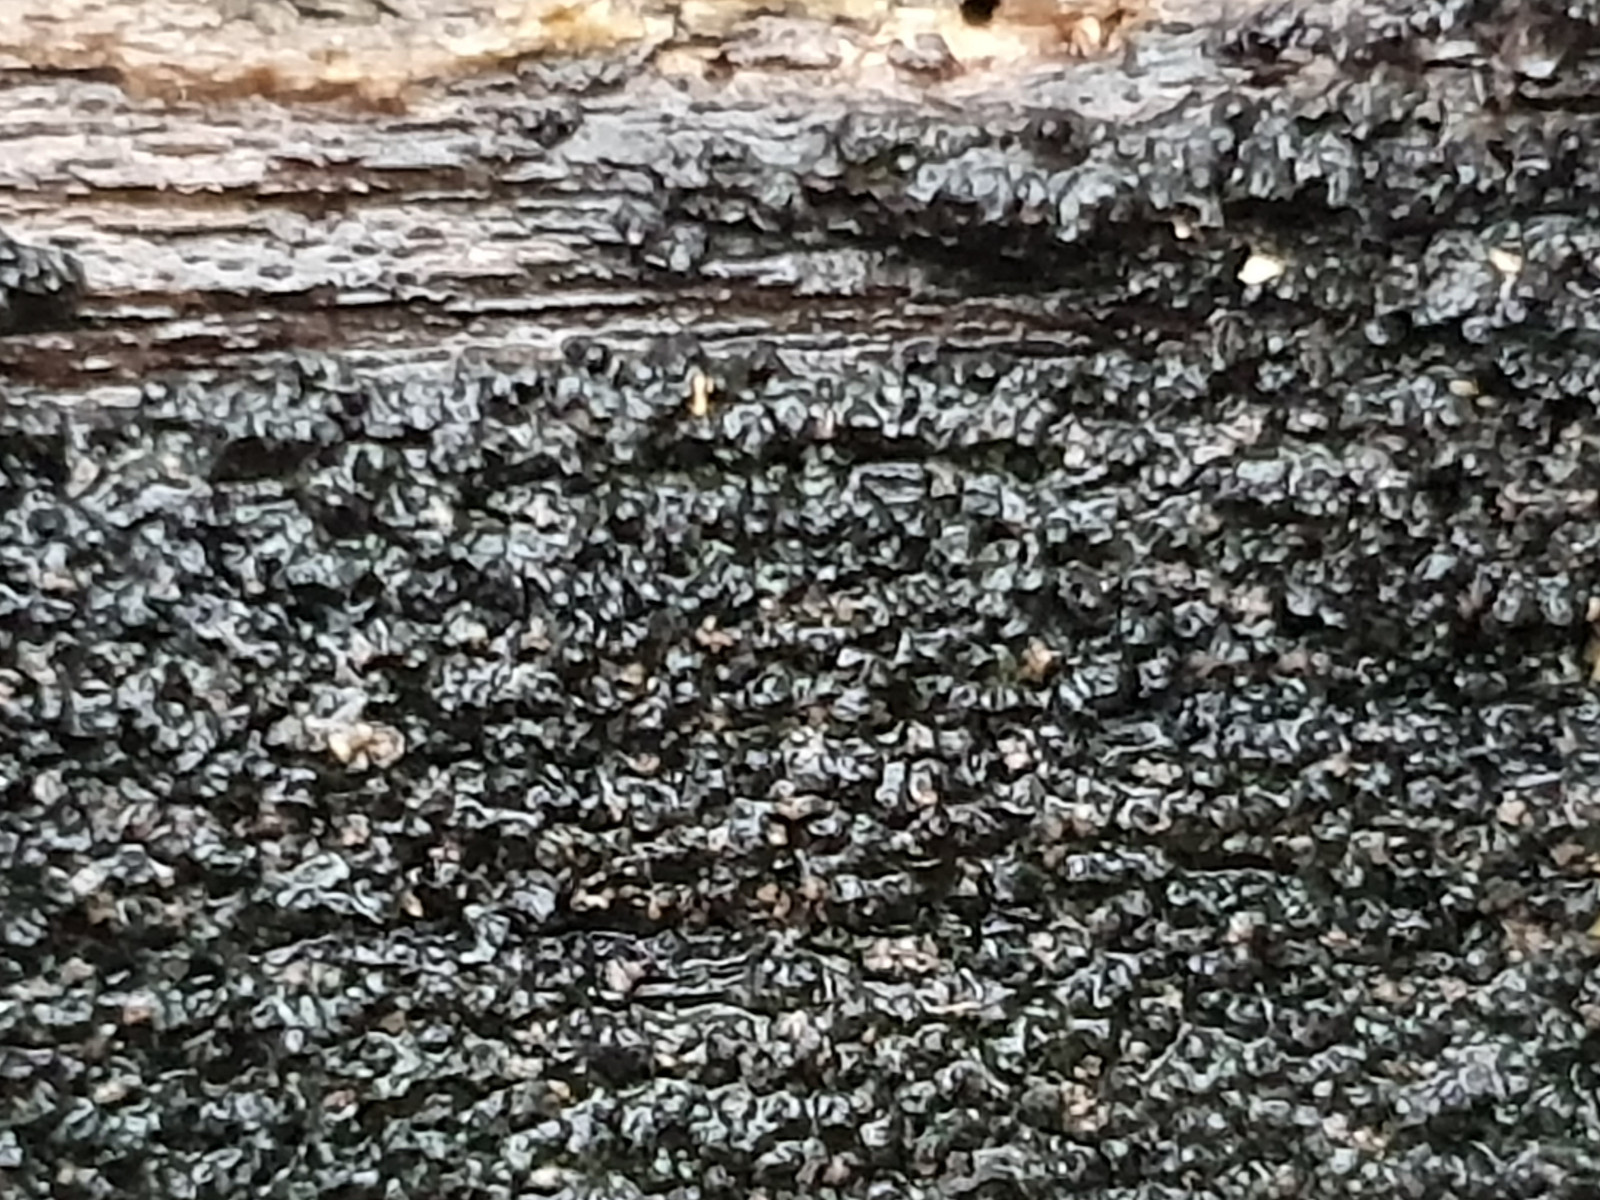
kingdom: Fungi
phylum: Ascomycota
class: Sordariomycetes
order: Xylariales
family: Diatrypaceae
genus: Eutypa
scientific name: Eutypa spinosa
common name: grov kulskorpe
